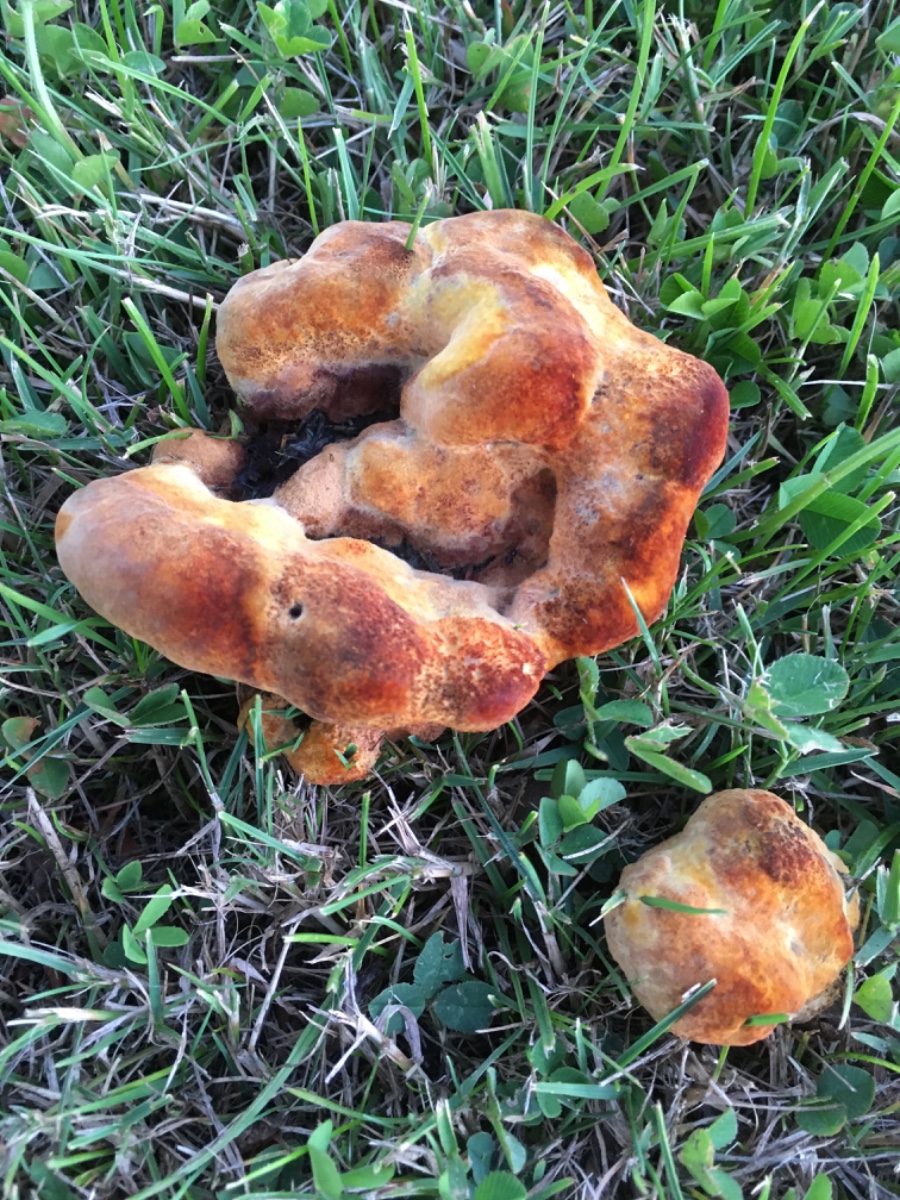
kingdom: Fungi
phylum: Basidiomycota
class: Agaricomycetes
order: Polyporales
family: Laetiporaceae
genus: Phaeolus
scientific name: Phaeolus schweinitzii
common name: brunporesvamp
